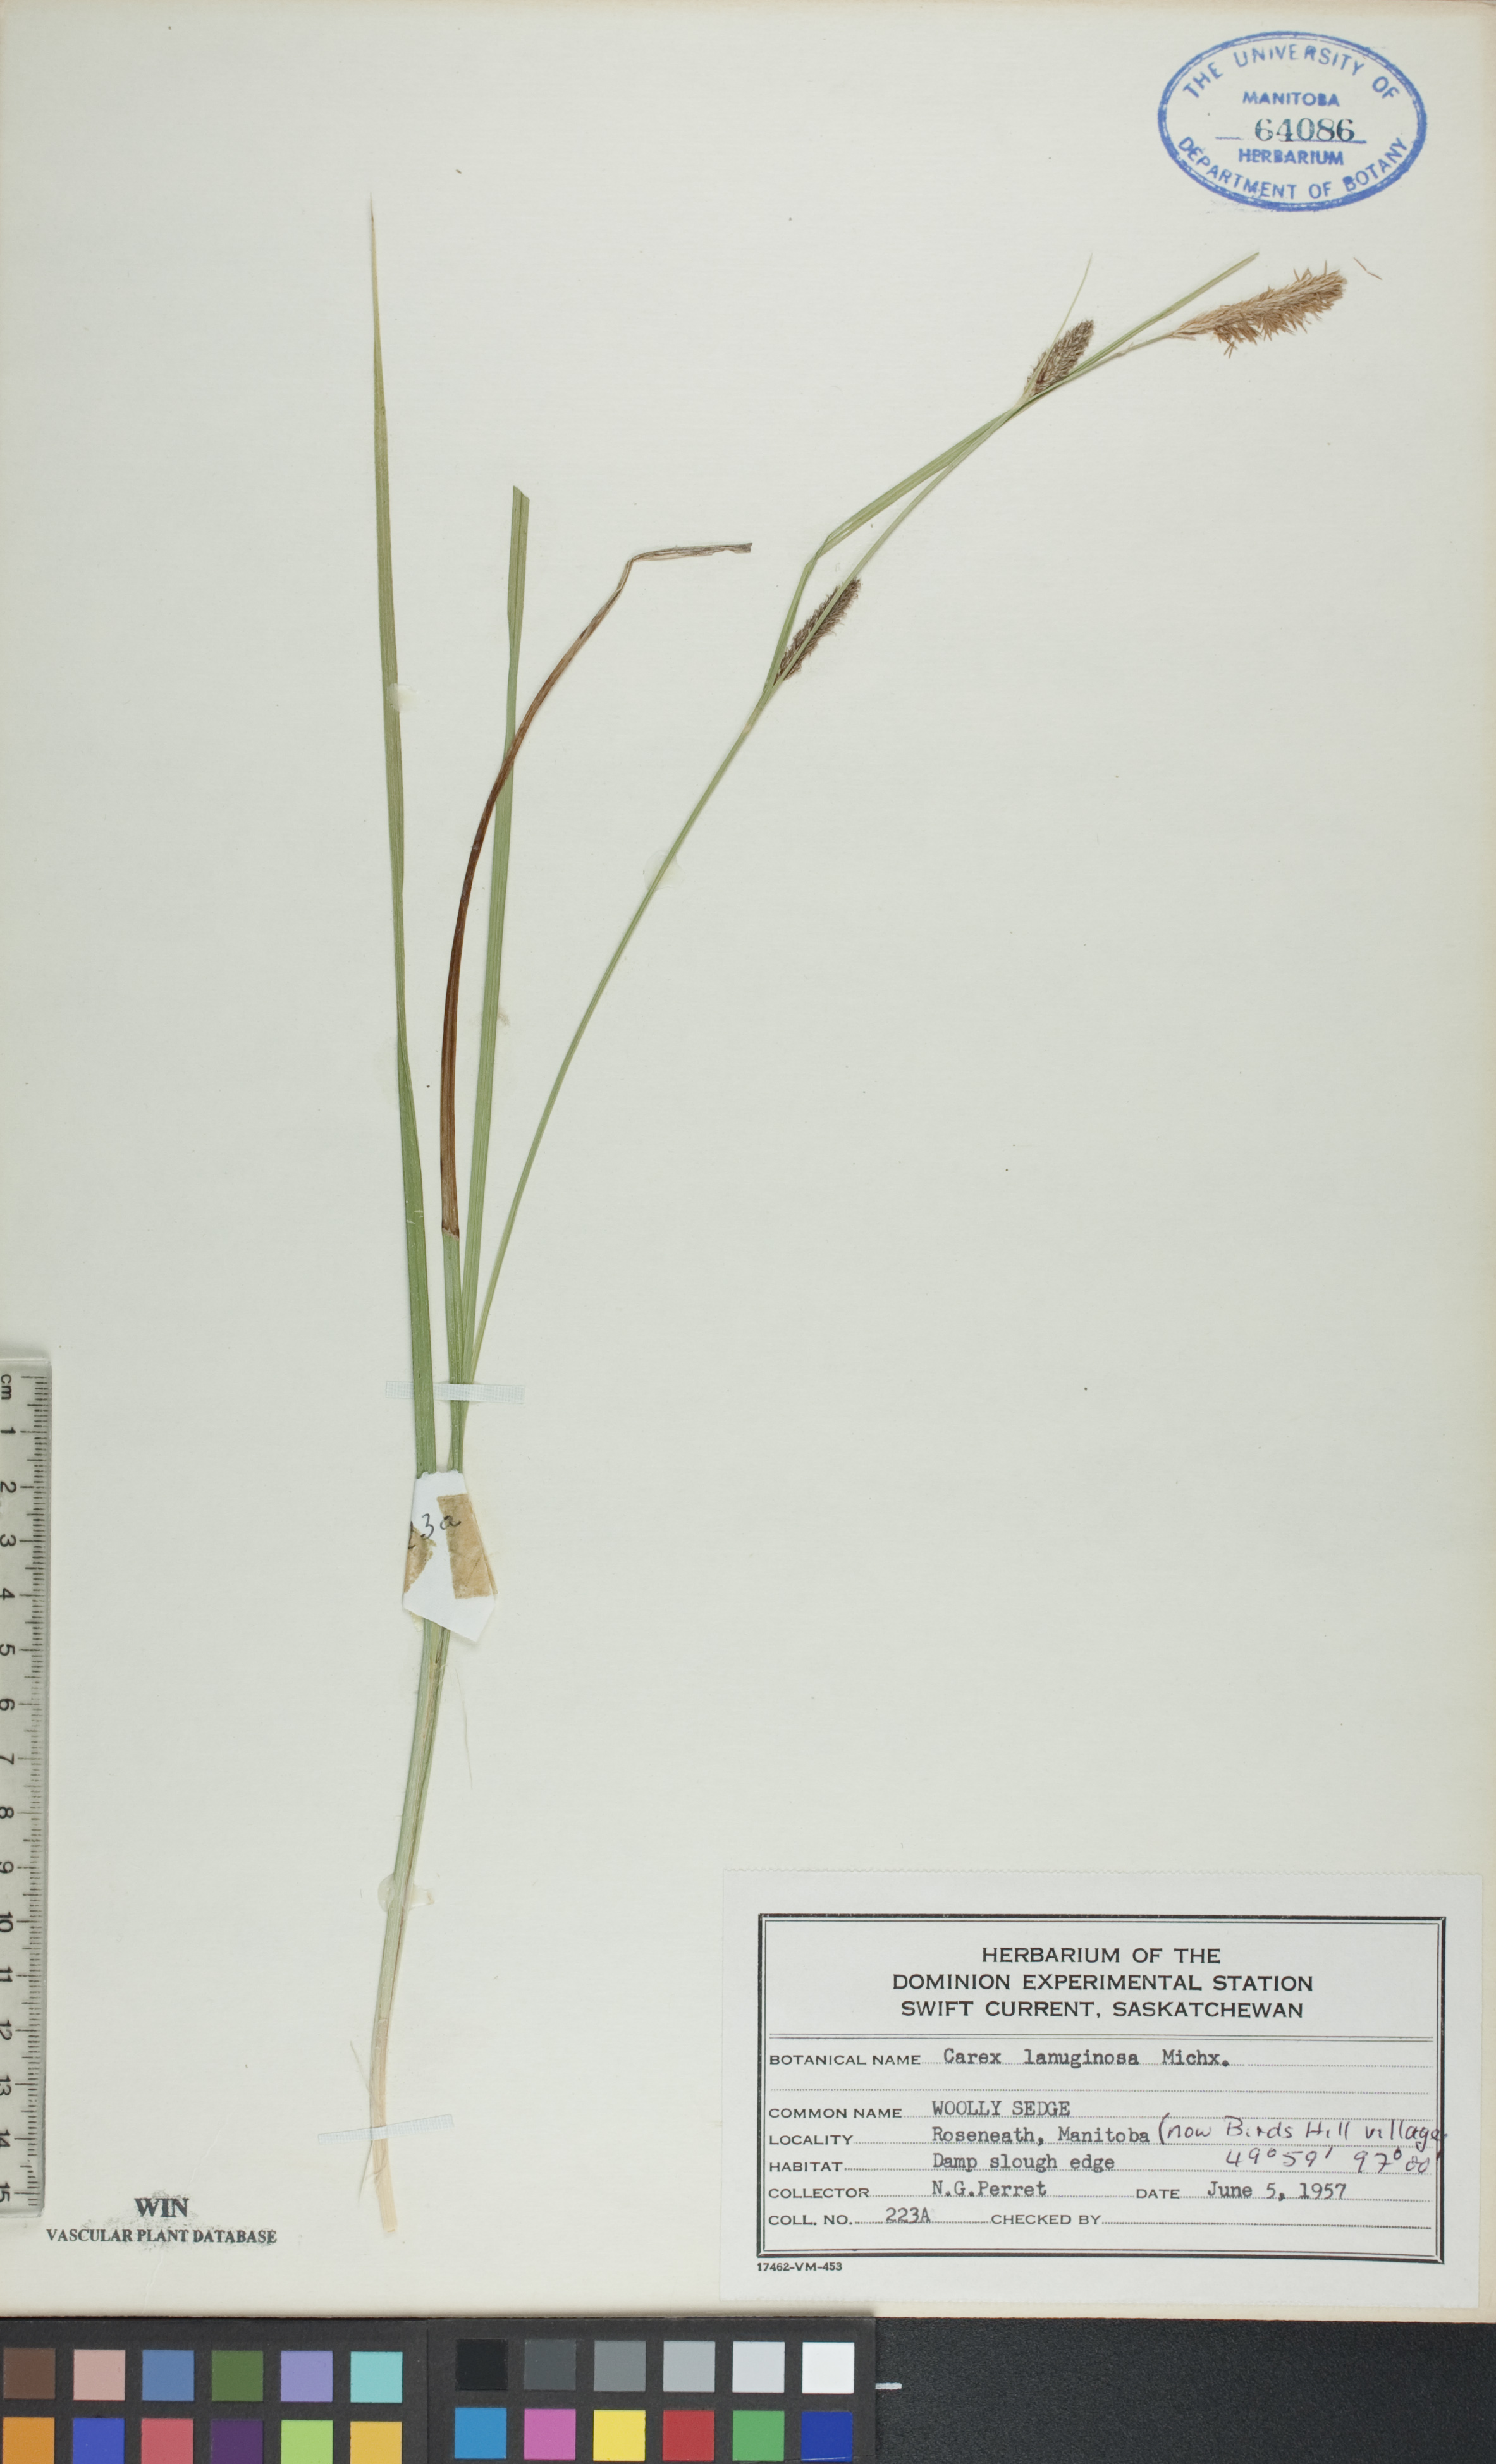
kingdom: Plantae
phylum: Tracheophyta
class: Liliopsida
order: Poales
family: Cyperaceae
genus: Carex
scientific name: Carex lasiocarpa
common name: Slender sedge
